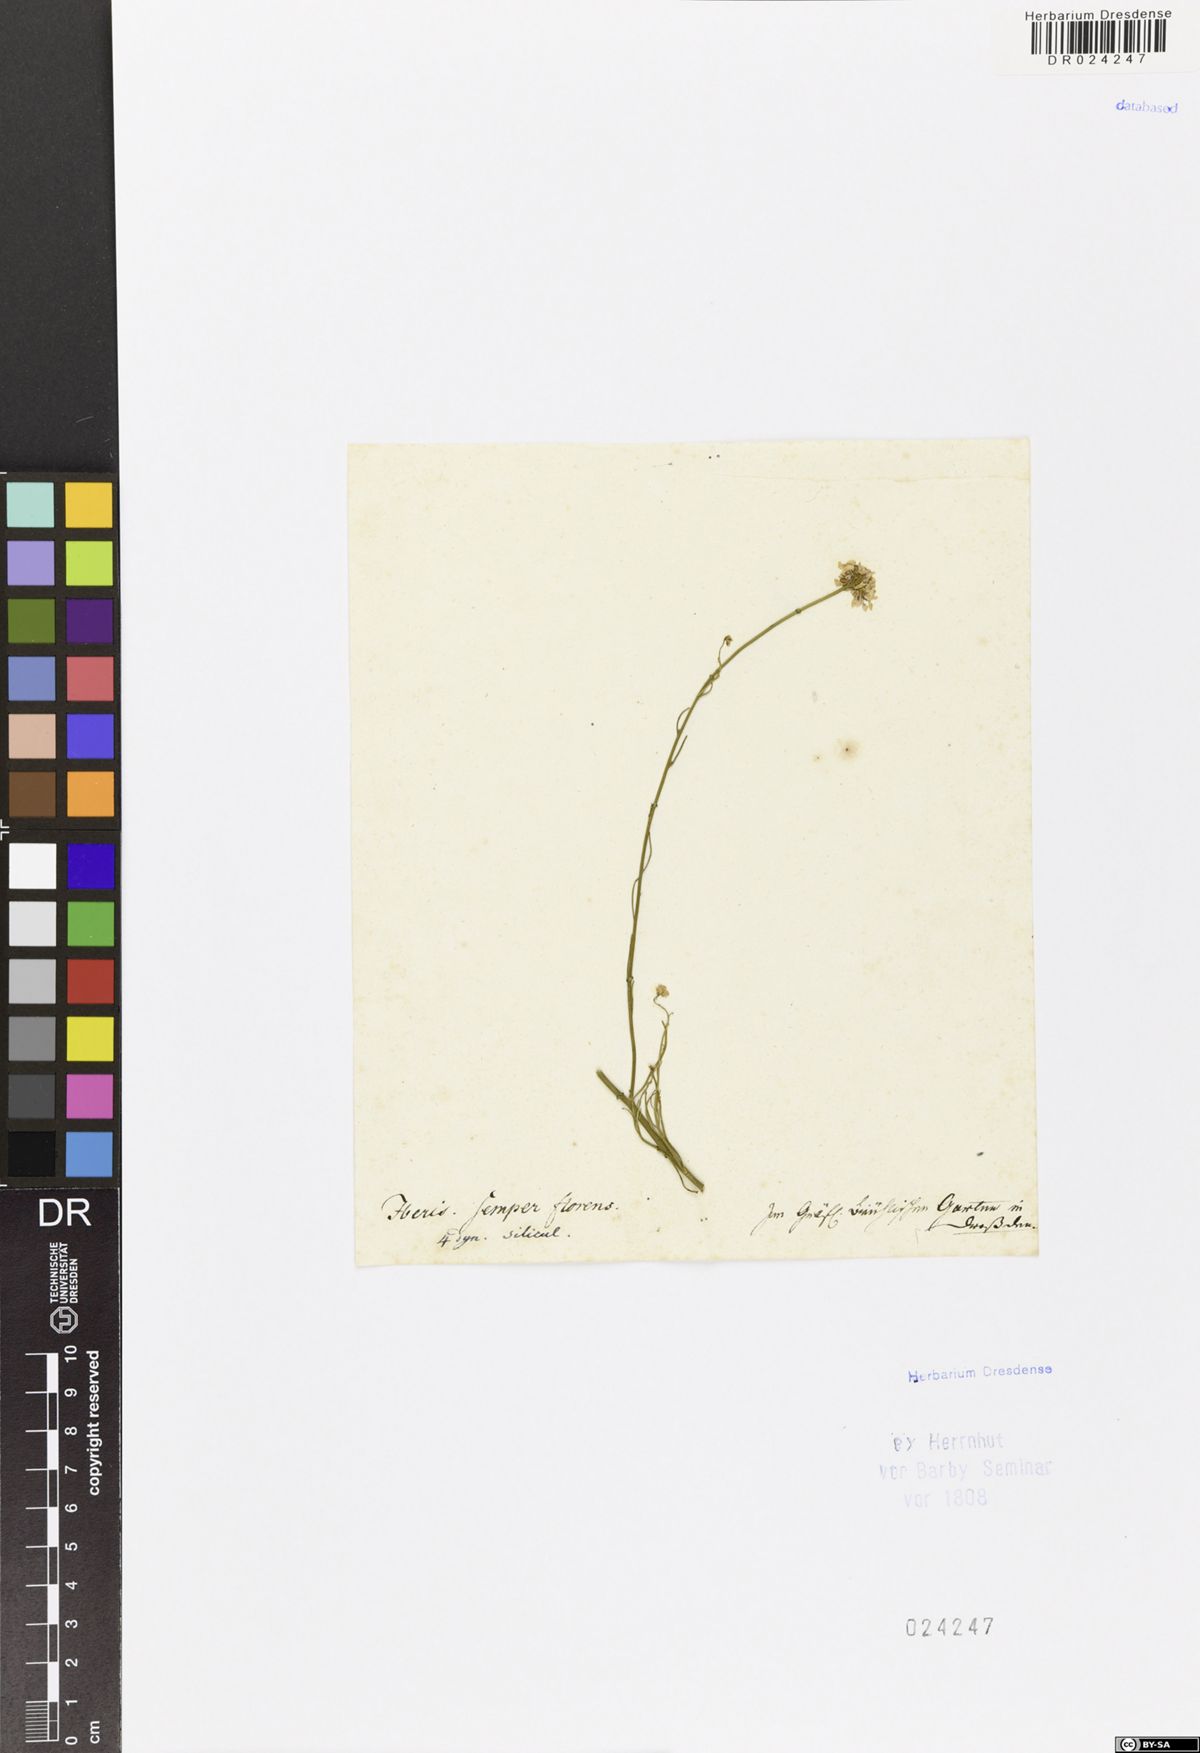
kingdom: Plantae
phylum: Tracheophyta
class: Magnoliopsida
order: Brassicales
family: Brassicaceae
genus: Iberis
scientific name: Iberis semperflorens
